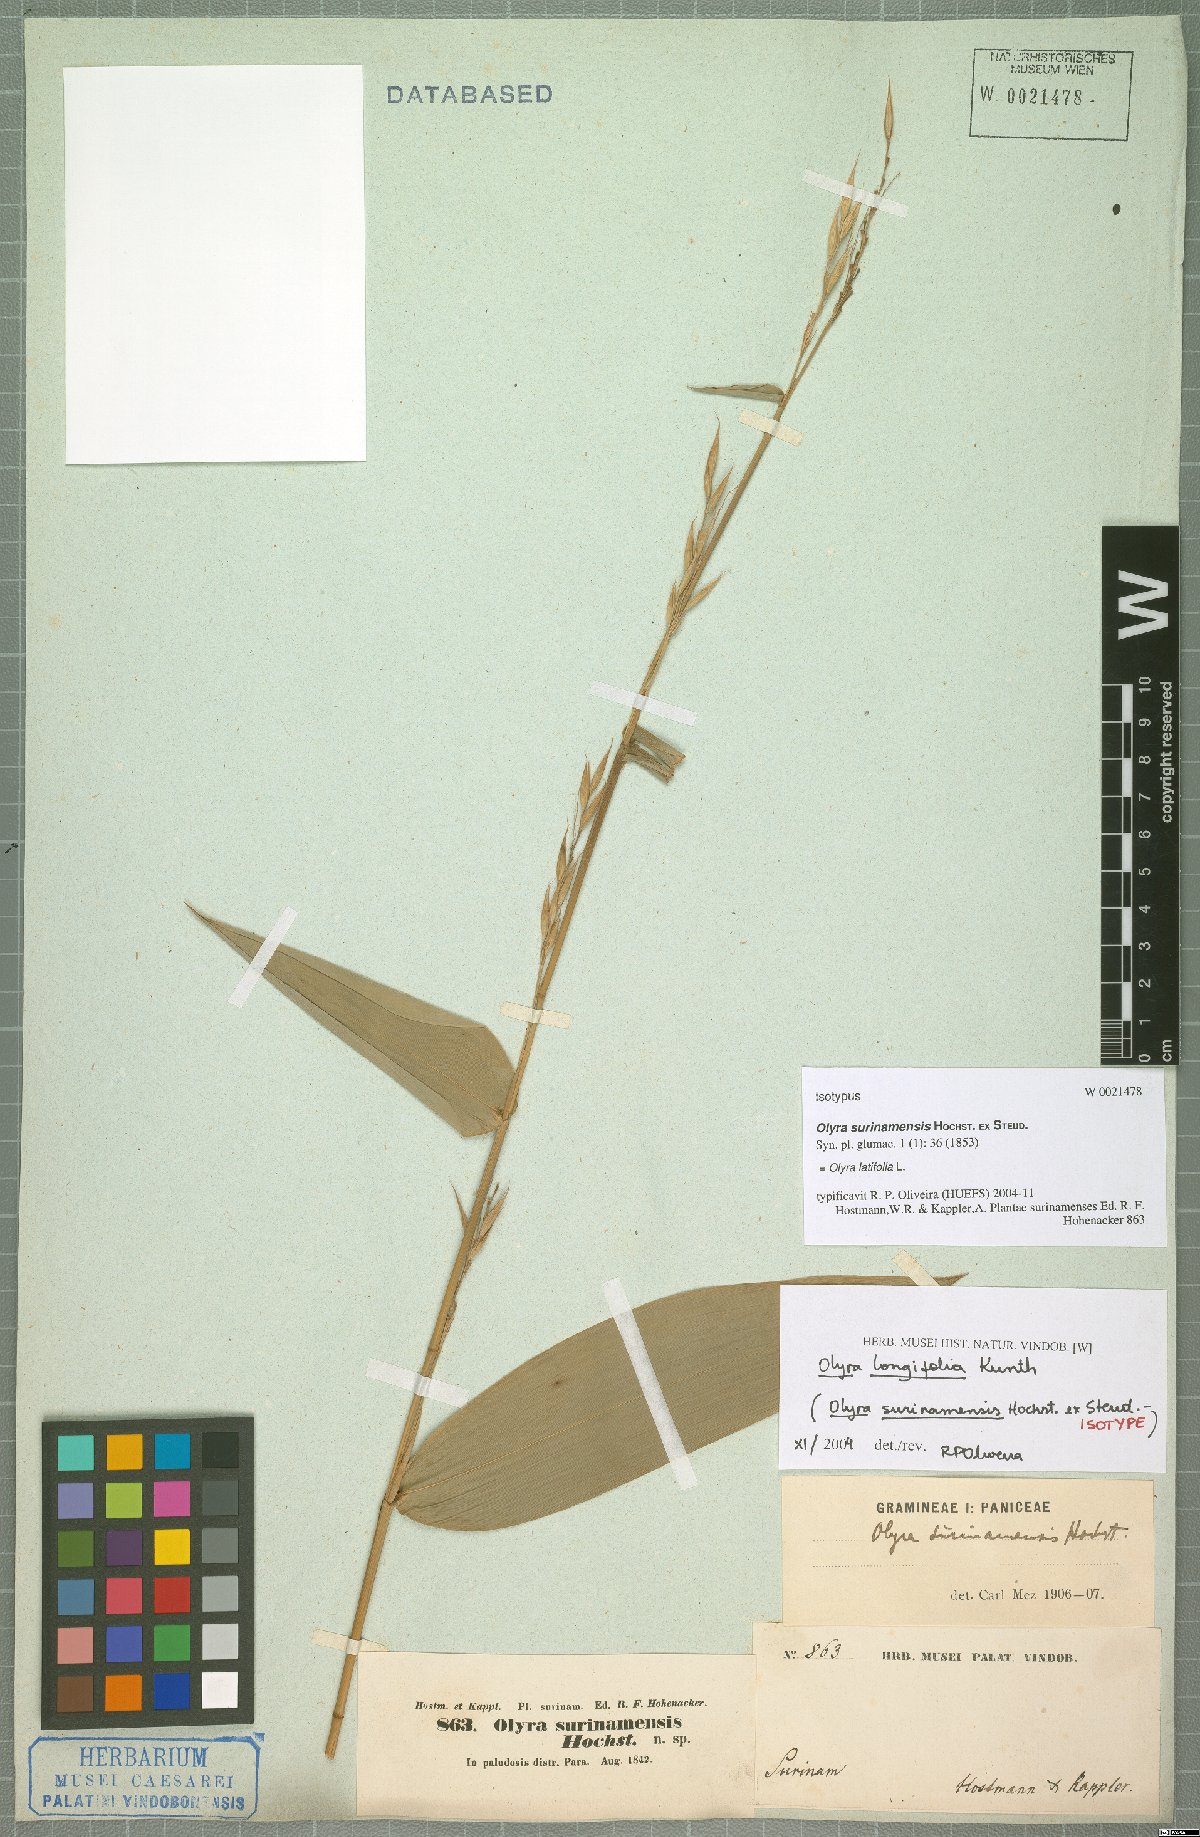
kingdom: Plantae
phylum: Tracheophyta
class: Liliopsida
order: Poales
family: Poaceae
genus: Olyra
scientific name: Olyra latifolia
